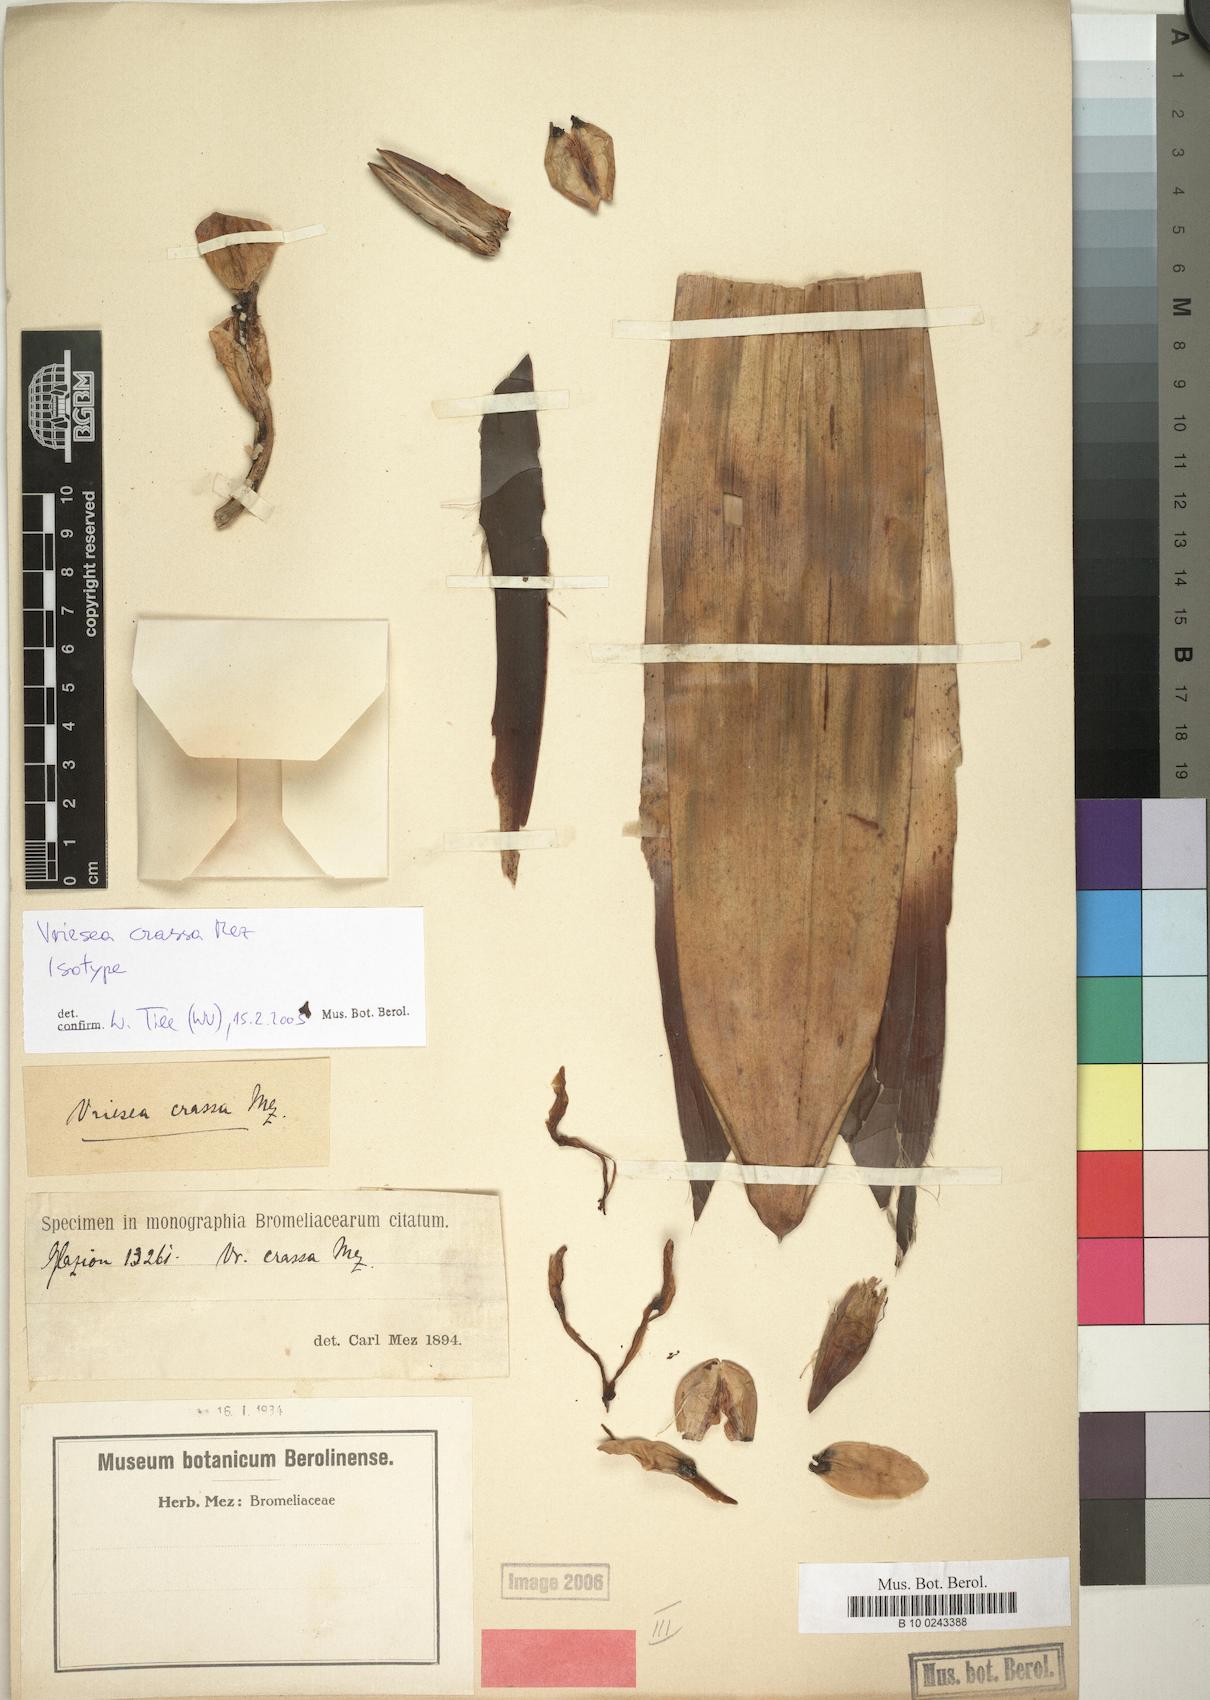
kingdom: Plantae
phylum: Tracheophyta
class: Liliopsida
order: Poales
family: Bromeliaceae
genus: Vriesea
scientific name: Vriesea crassa
